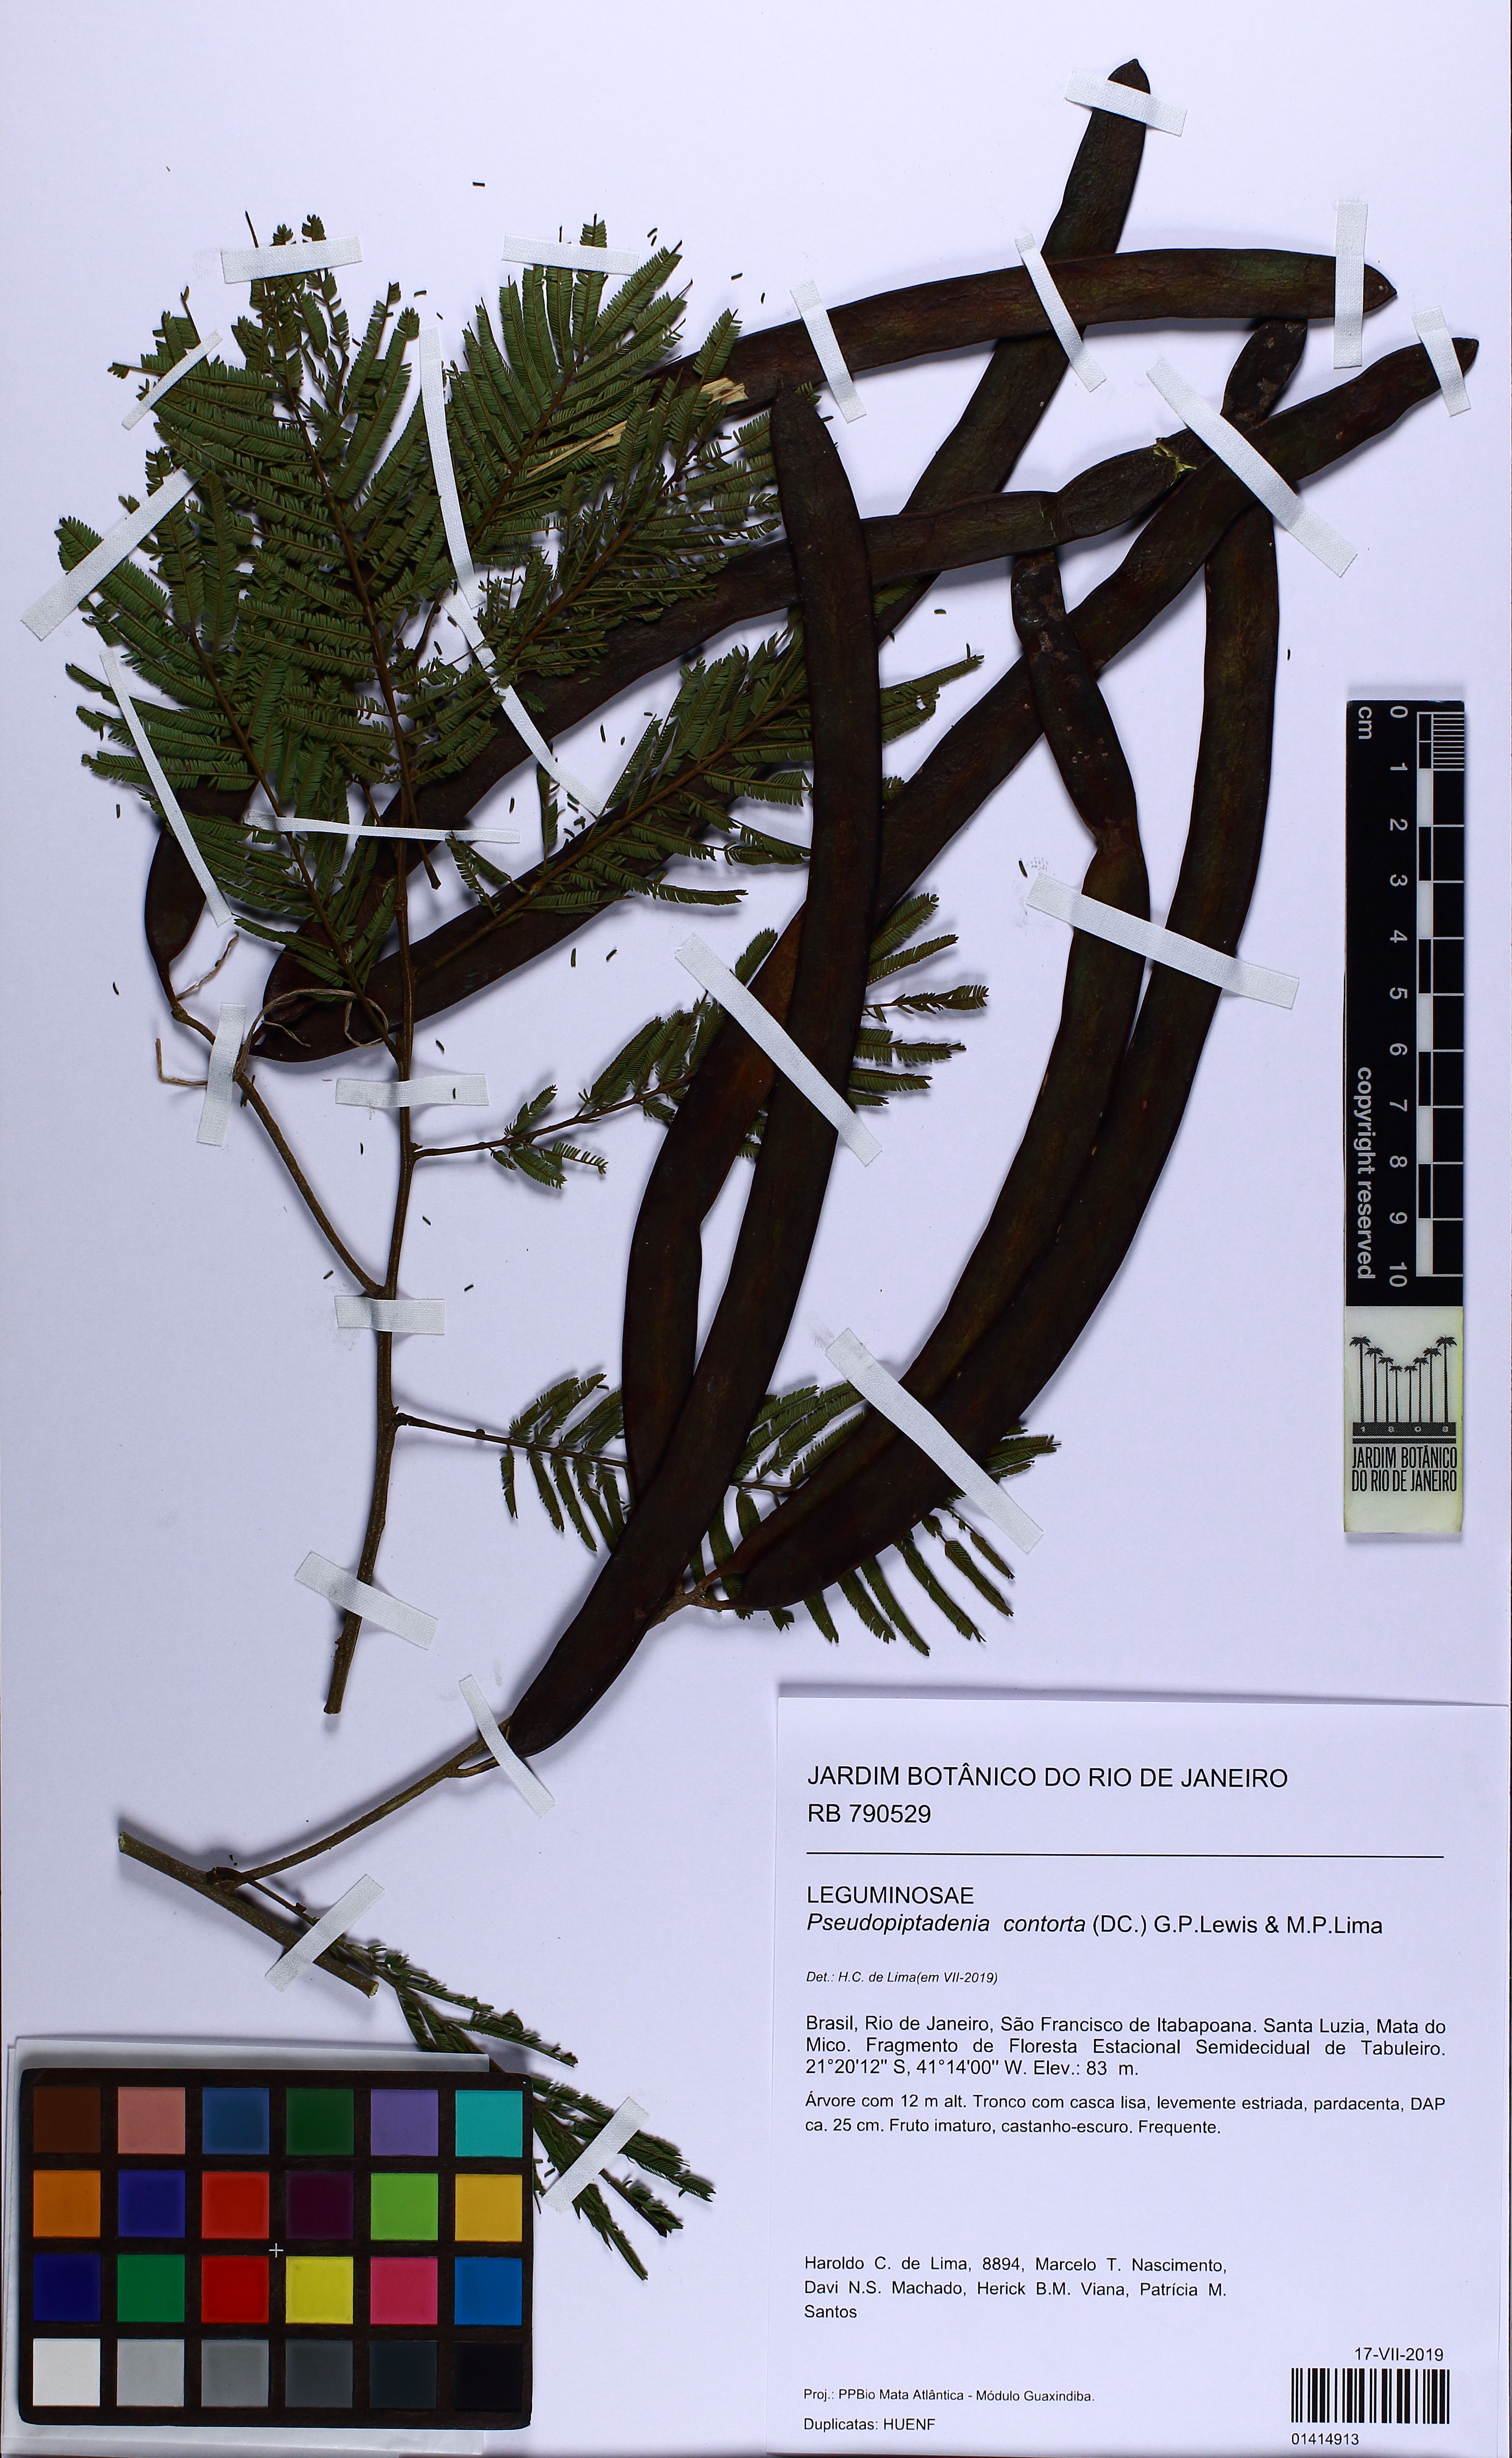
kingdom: Plantae
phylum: Tracheophyta
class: Magnoliopsida
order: Fabales
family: Fabaceae
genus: Pseudopiptadenia
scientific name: Pseudopiptadenia contorta
